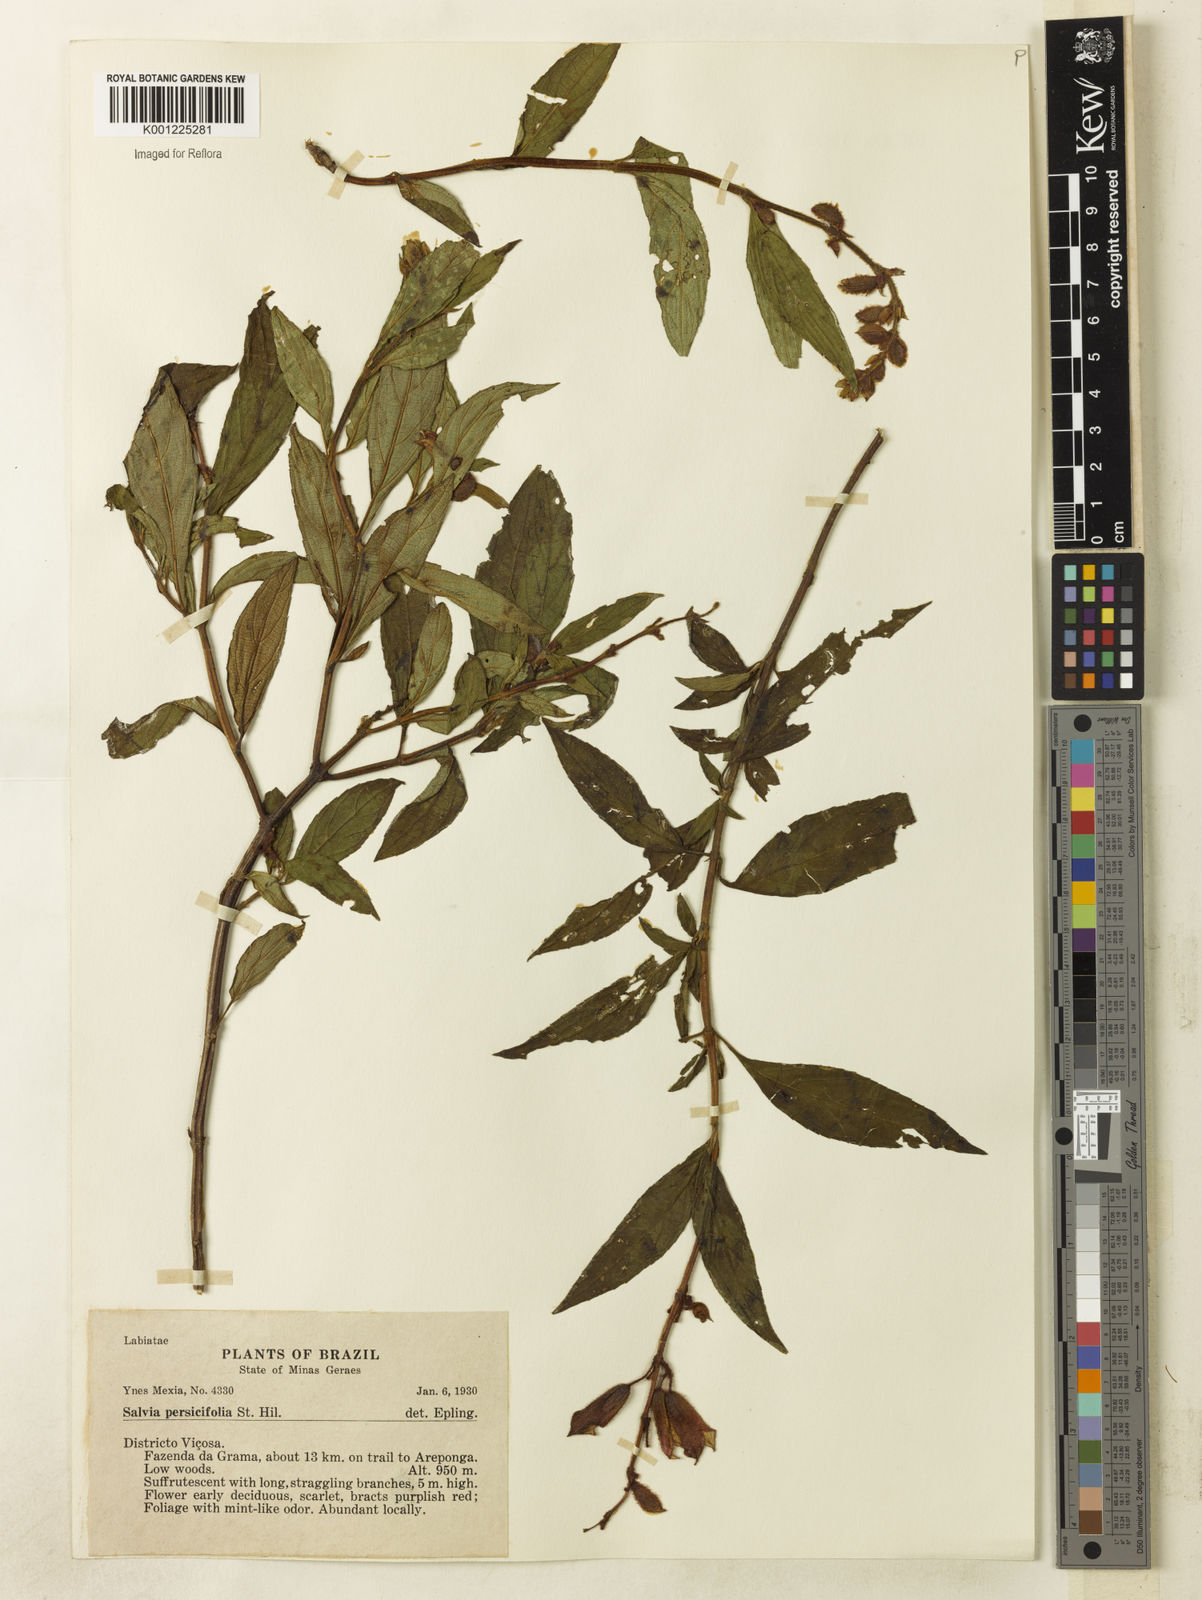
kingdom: Plantae
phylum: Tracheophyta
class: Magnoliopsida
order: Lamiales
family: Lamiaceae
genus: Salvia
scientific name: Salvia persicifolia
